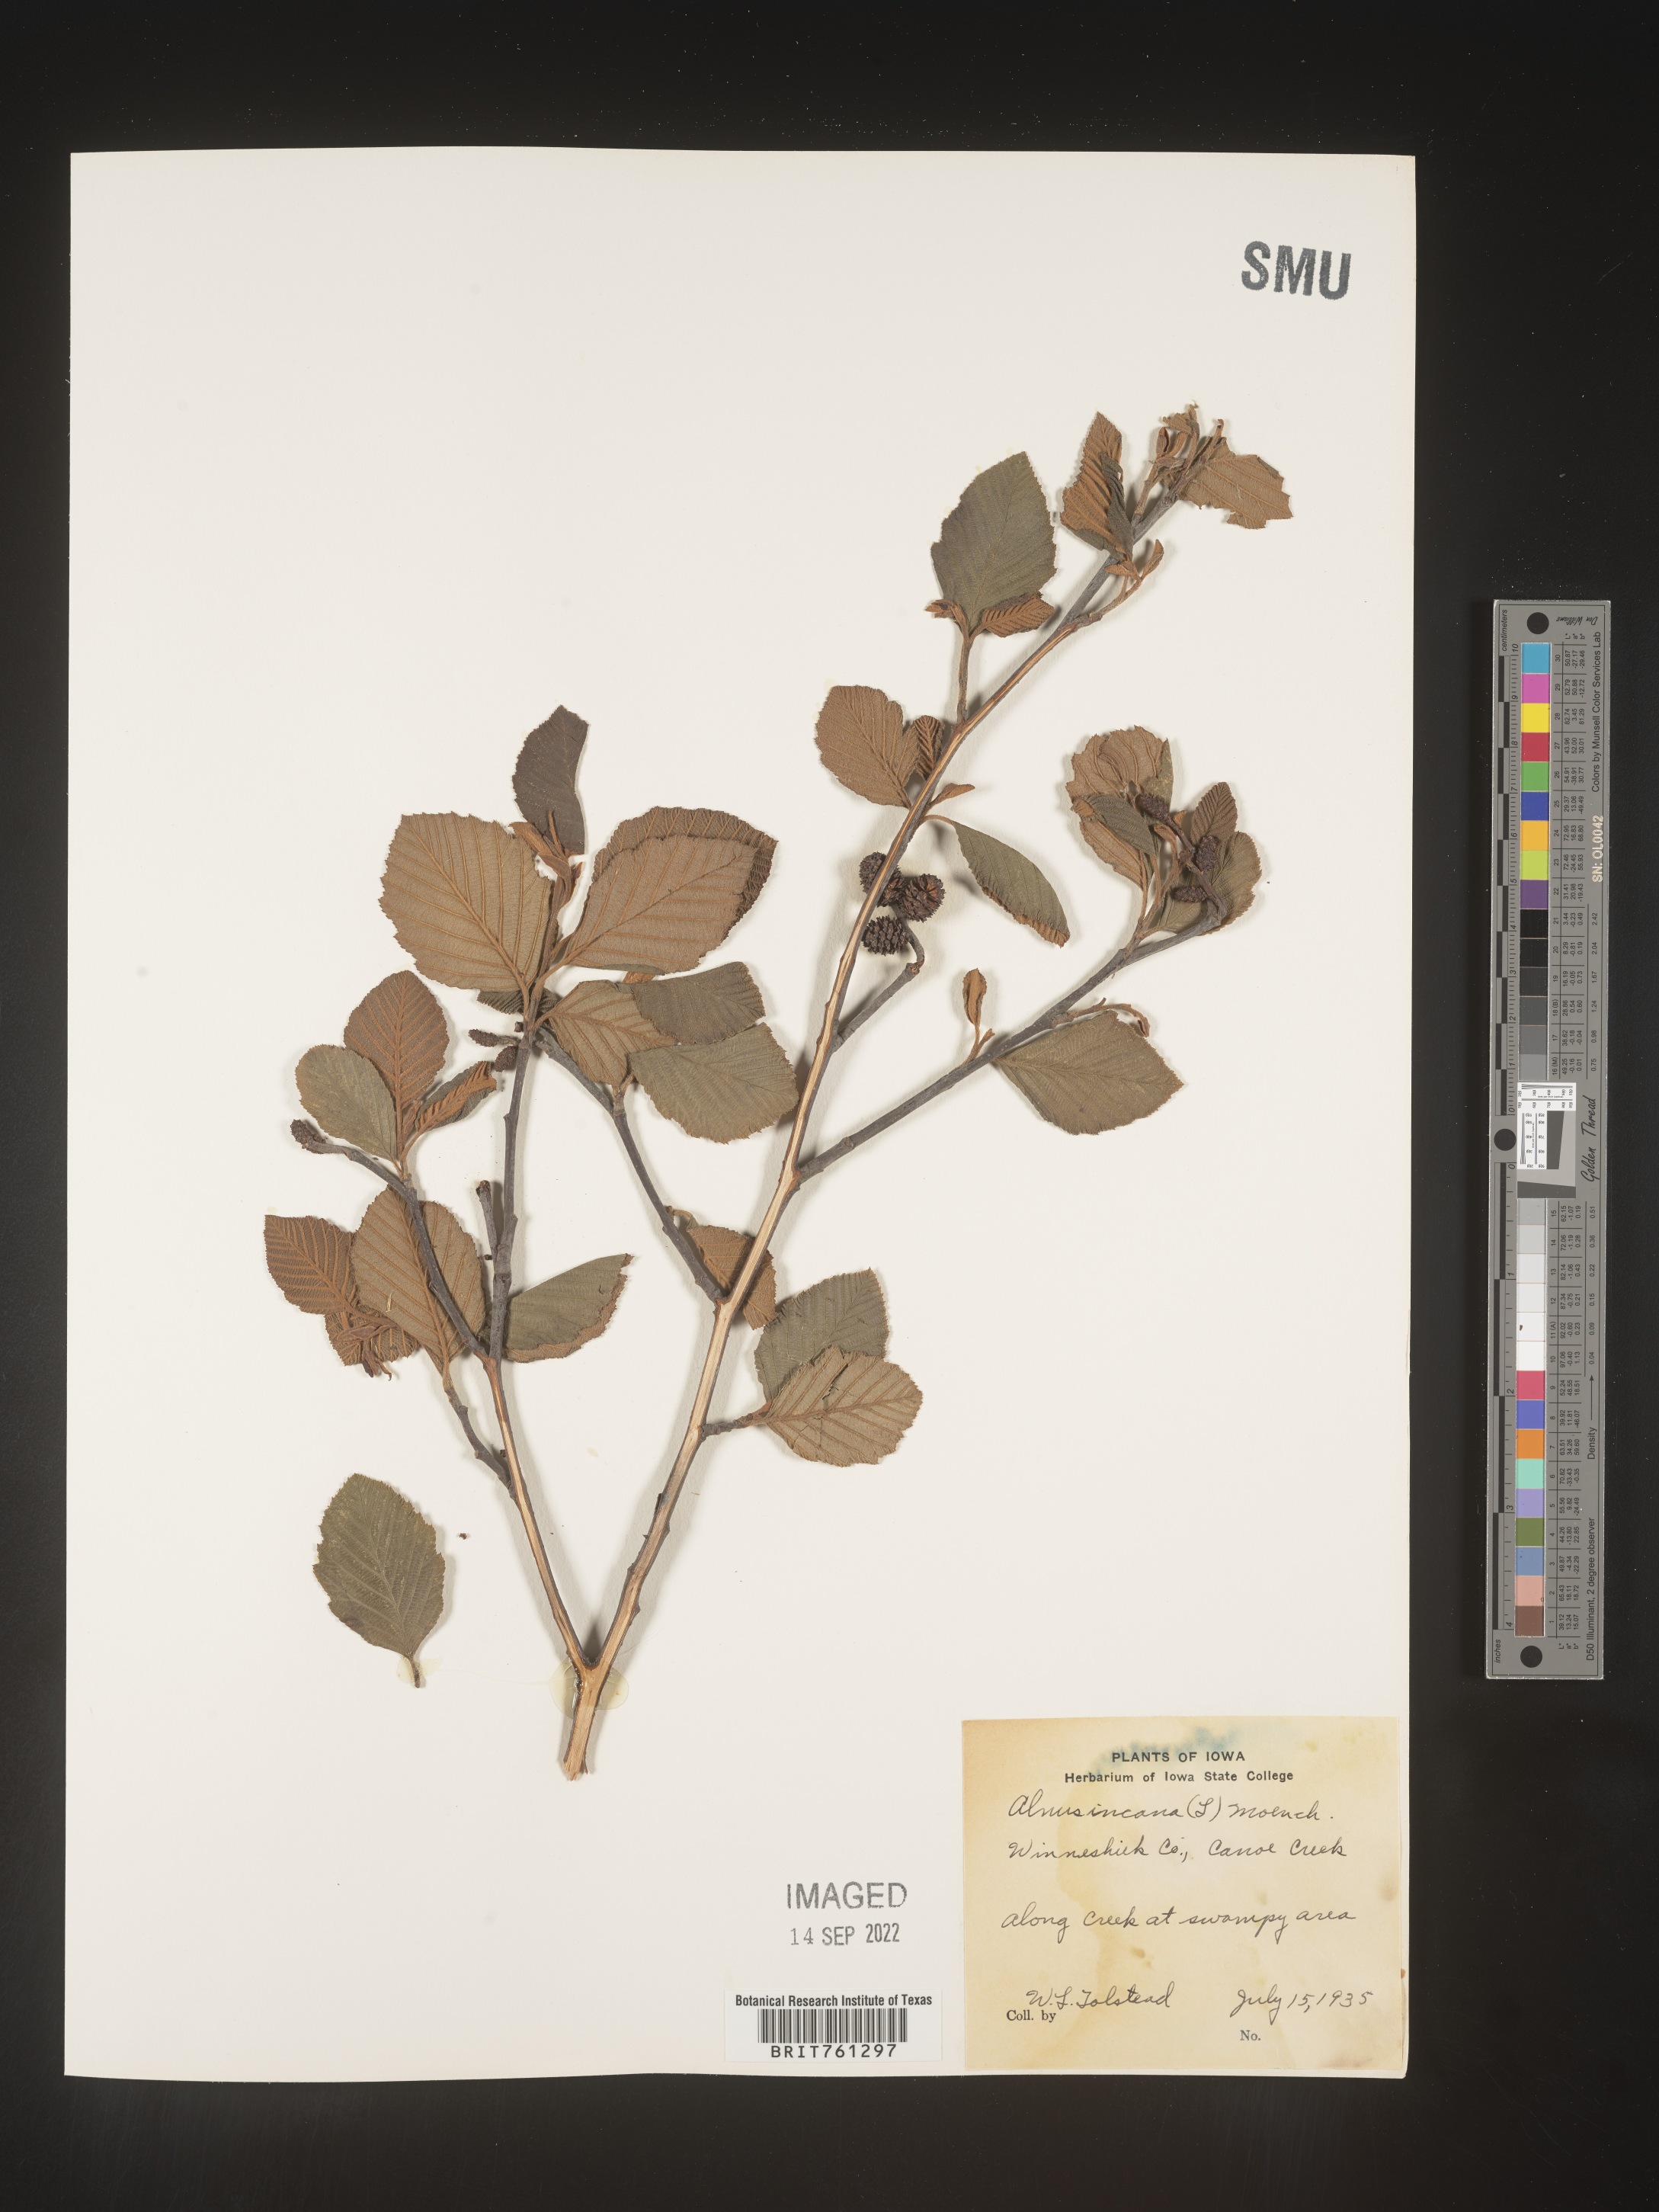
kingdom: Plantae
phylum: Tracheophyta
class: Magnoliopsida
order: Fagales
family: Betulaceae
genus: Alnus
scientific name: Alnus incana
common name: Grey alder
